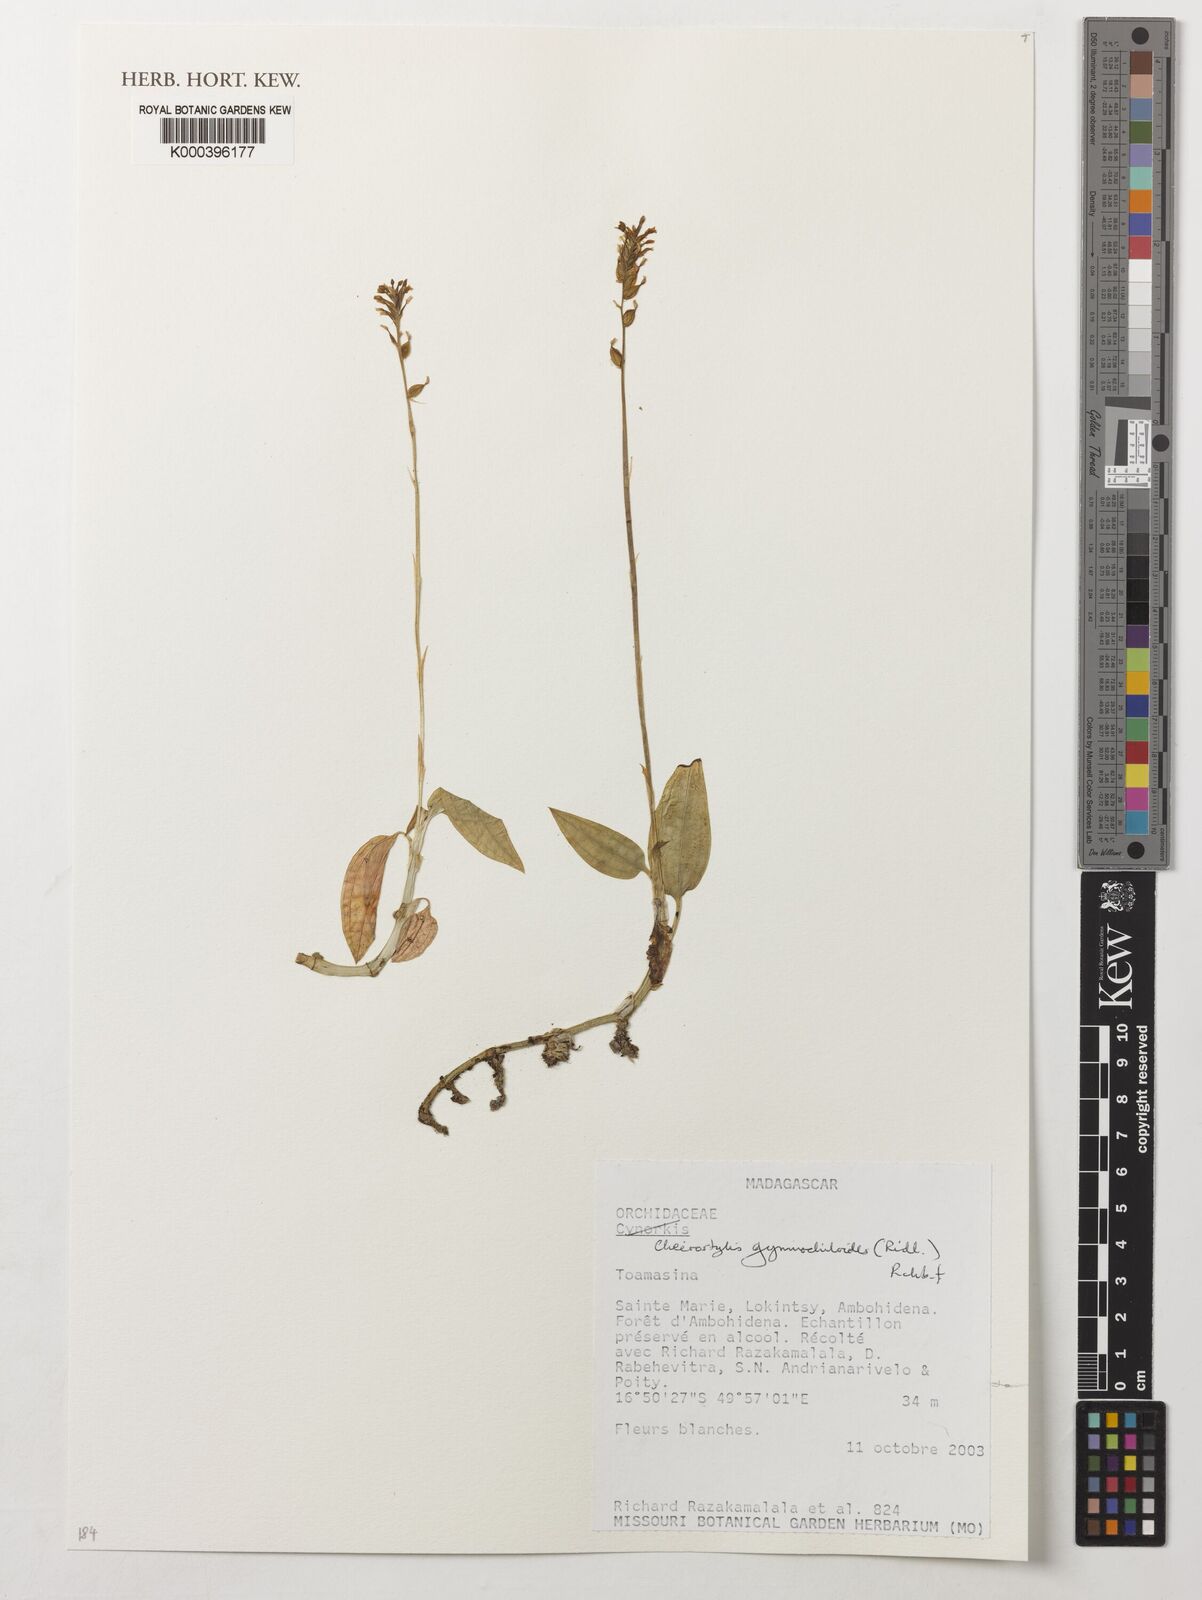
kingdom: Plantae
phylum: Tracheophyta
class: Liliopsida
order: Asparagales
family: Orchidaceae
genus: Cheirostylis
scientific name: Cheirostylis nuda
